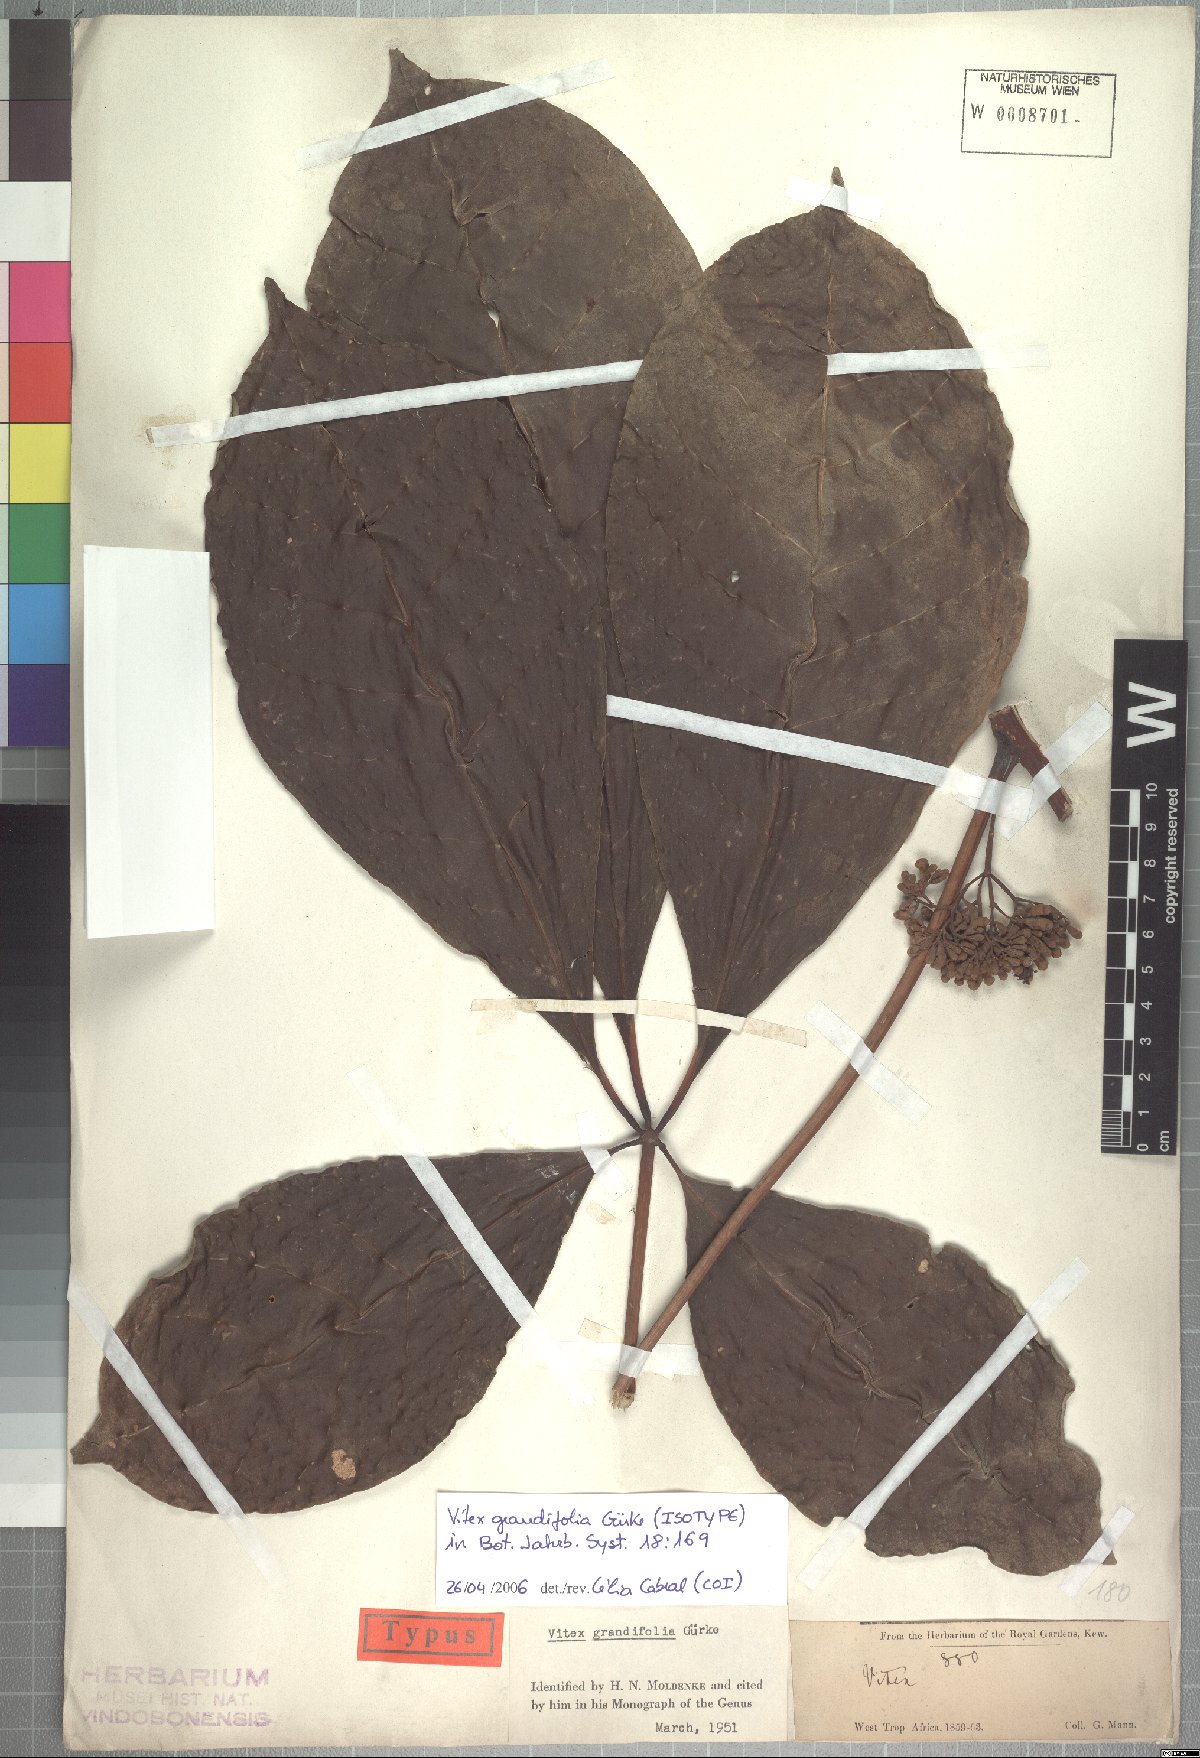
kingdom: Plantae
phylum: Tracheophyta
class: Magnoliopsida
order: Lamiales
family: Lamiaceae
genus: Vitex
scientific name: Vitex grandifolia
